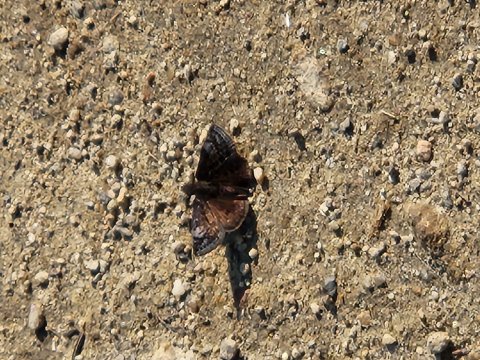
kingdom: Animalia
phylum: Arthropoda
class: Insecta
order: Lepidoptera
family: Hesperiidae
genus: Gesta
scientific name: Gesta
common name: Juvenal's Duskywing
